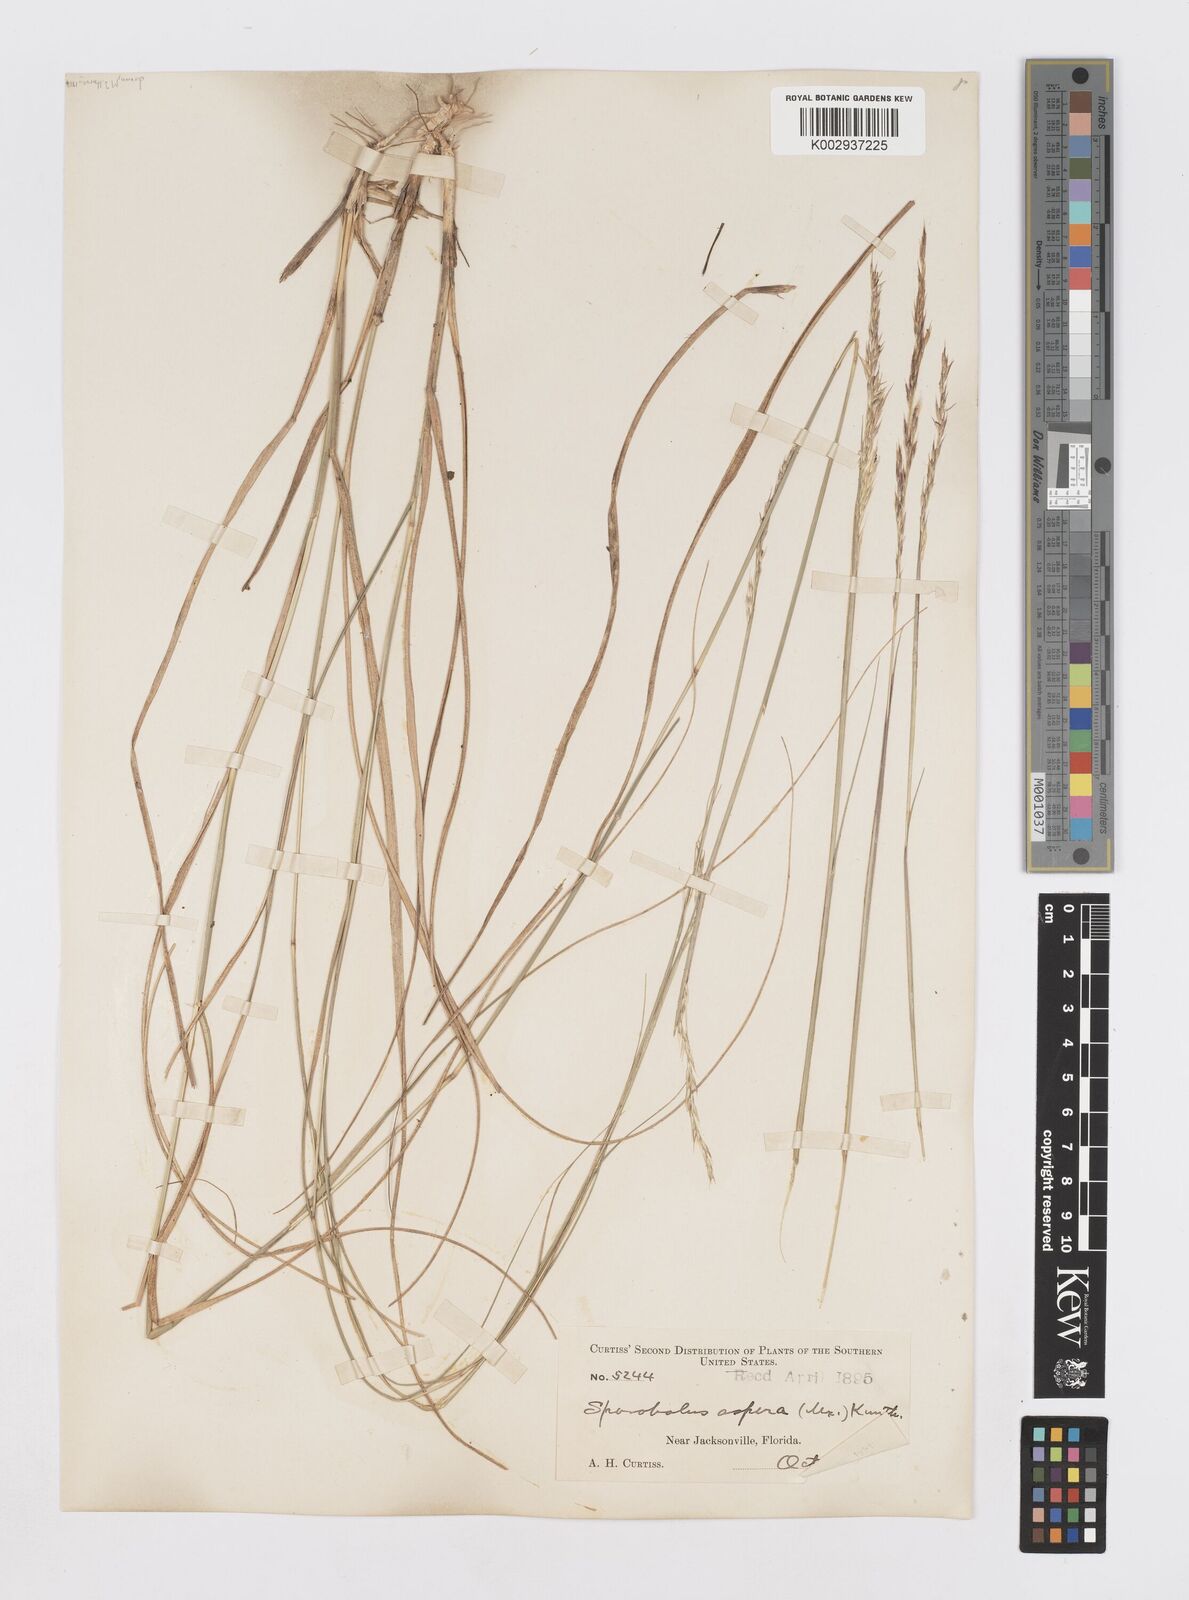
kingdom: Plantae
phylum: Tracheophyta
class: Liliopsida
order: Poales
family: Poaceae
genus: Sporobolus
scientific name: Sporobolus clandestinus
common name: Hidden dropseed
